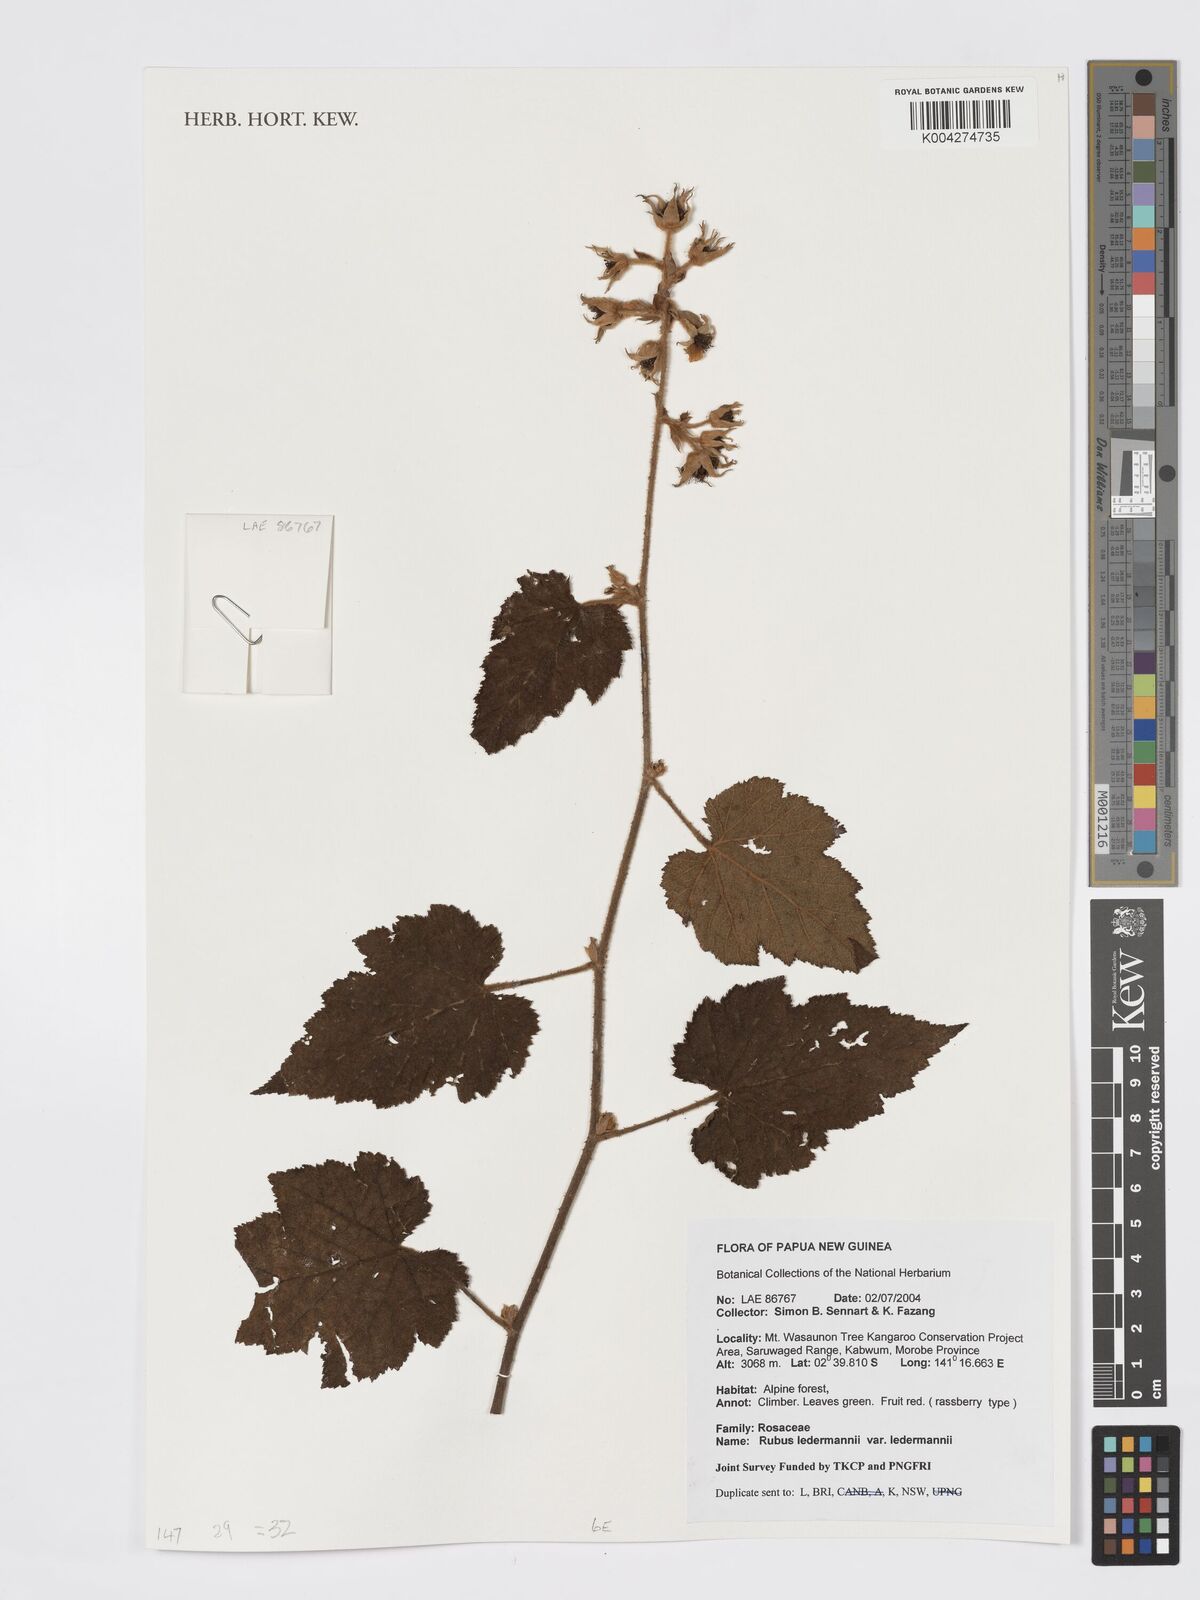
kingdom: Plantae
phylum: Tracheophyta
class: Magnoliopsida
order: Rosales
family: Rosaceae
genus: Rubus
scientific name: Rubus
